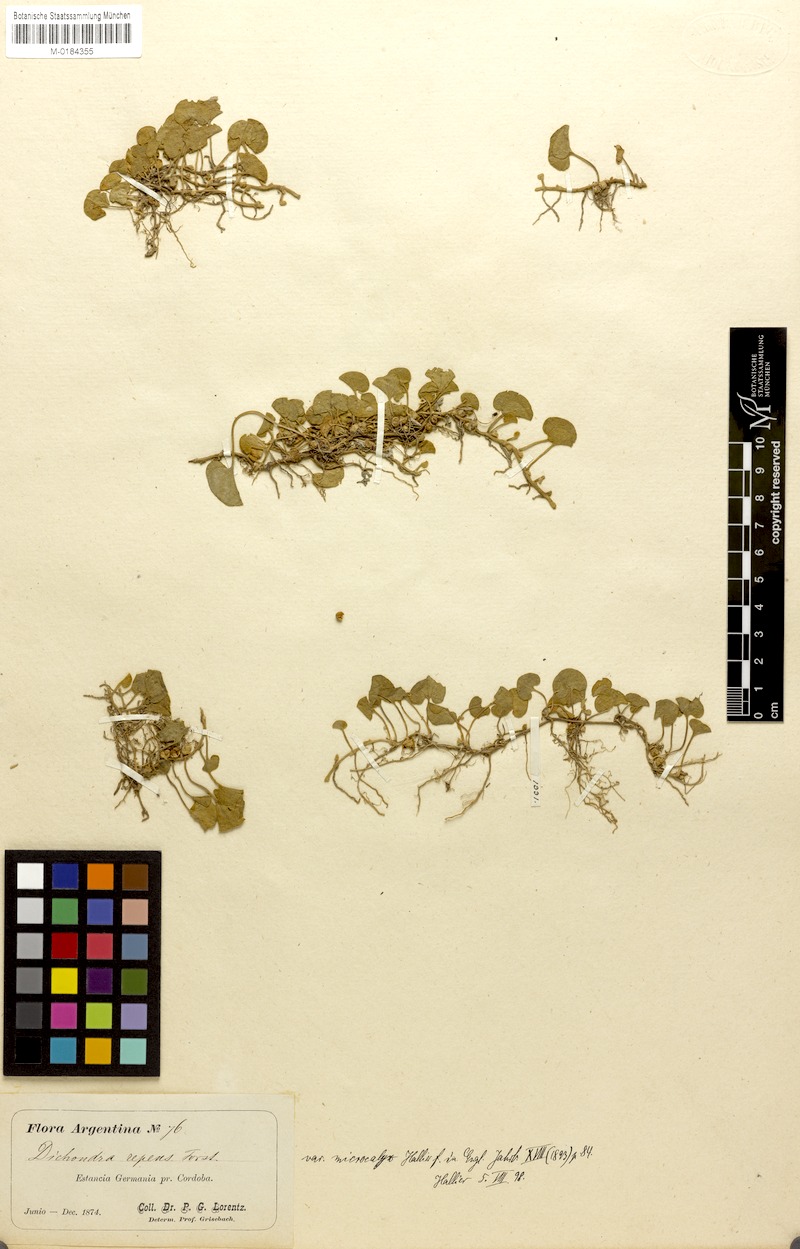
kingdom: Plantae
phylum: Tracheophyta
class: Magnoliopsida
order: Solanales
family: Convolvulaceae
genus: Dichondra
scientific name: Dichondra microcalyx
